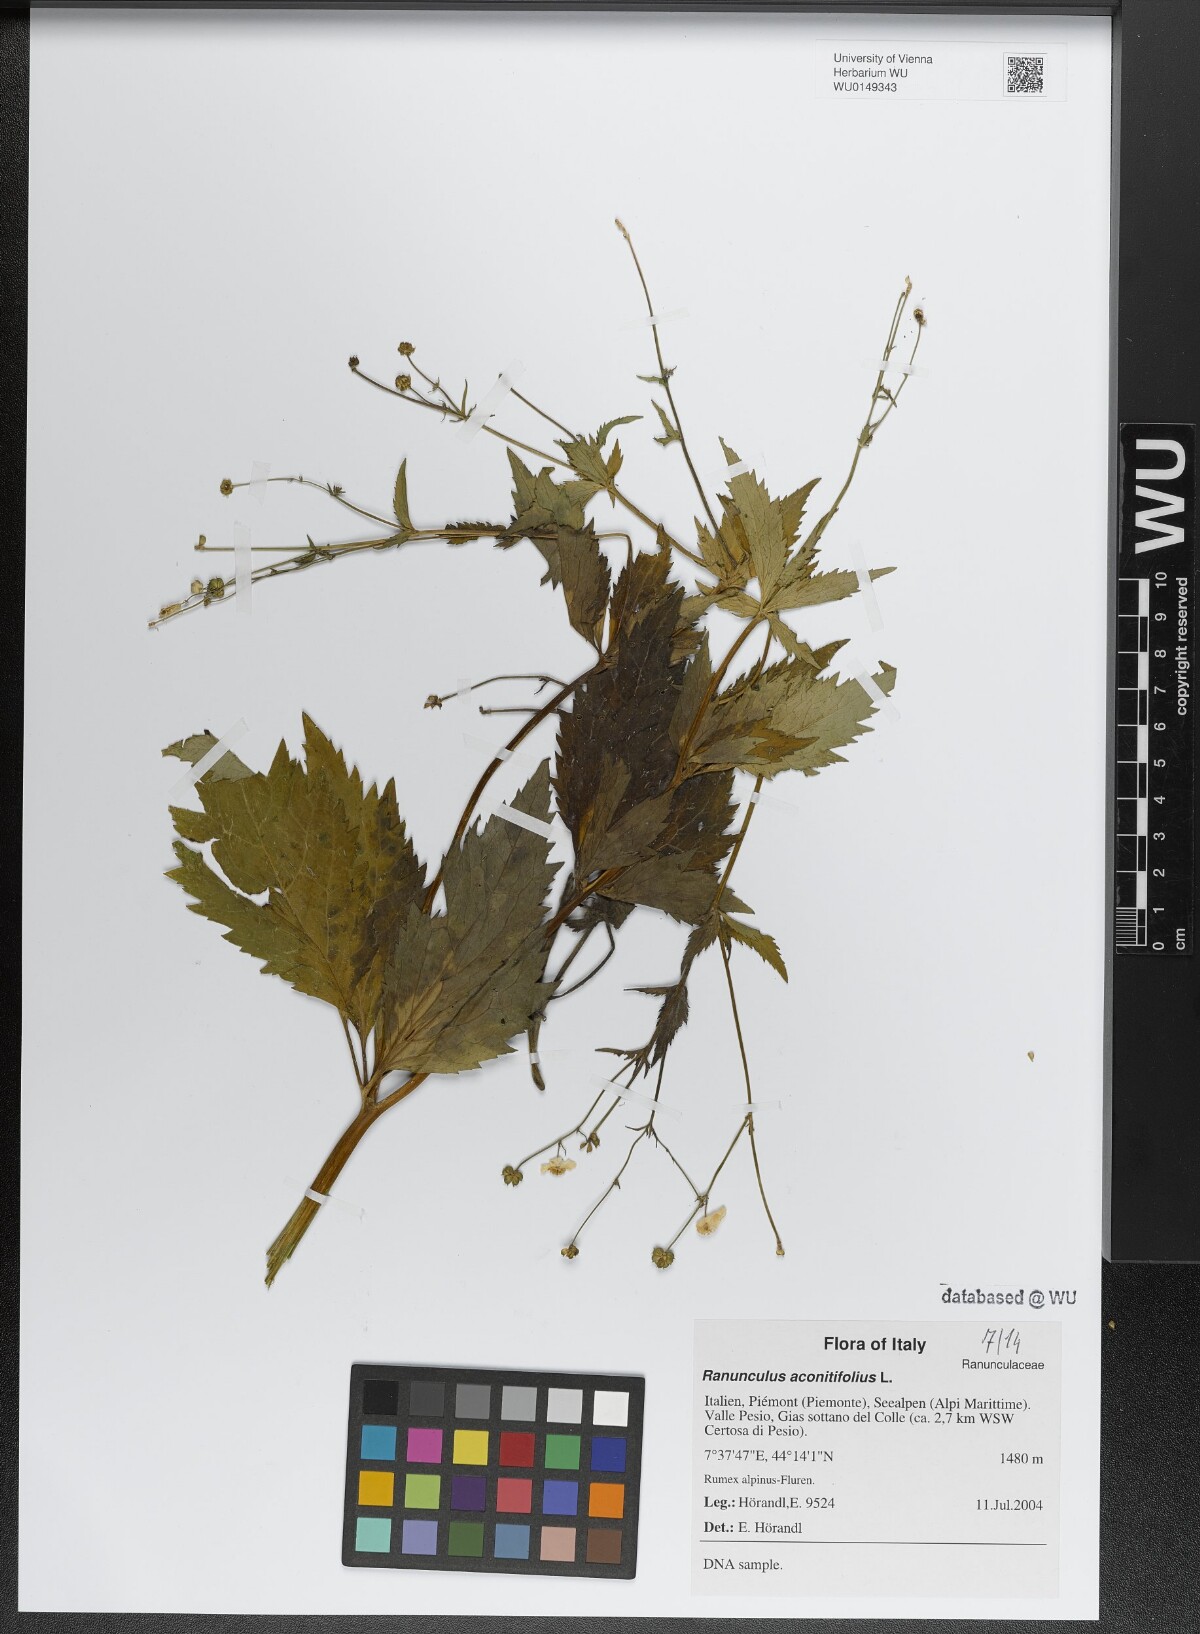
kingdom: Plantae
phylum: Tracheophyta
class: Magnoliopsida
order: Ranunculales
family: Ranunculaceae
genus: Ranunculus
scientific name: Ranunculus aconitifolius
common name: Aconite-leaved buttercup
